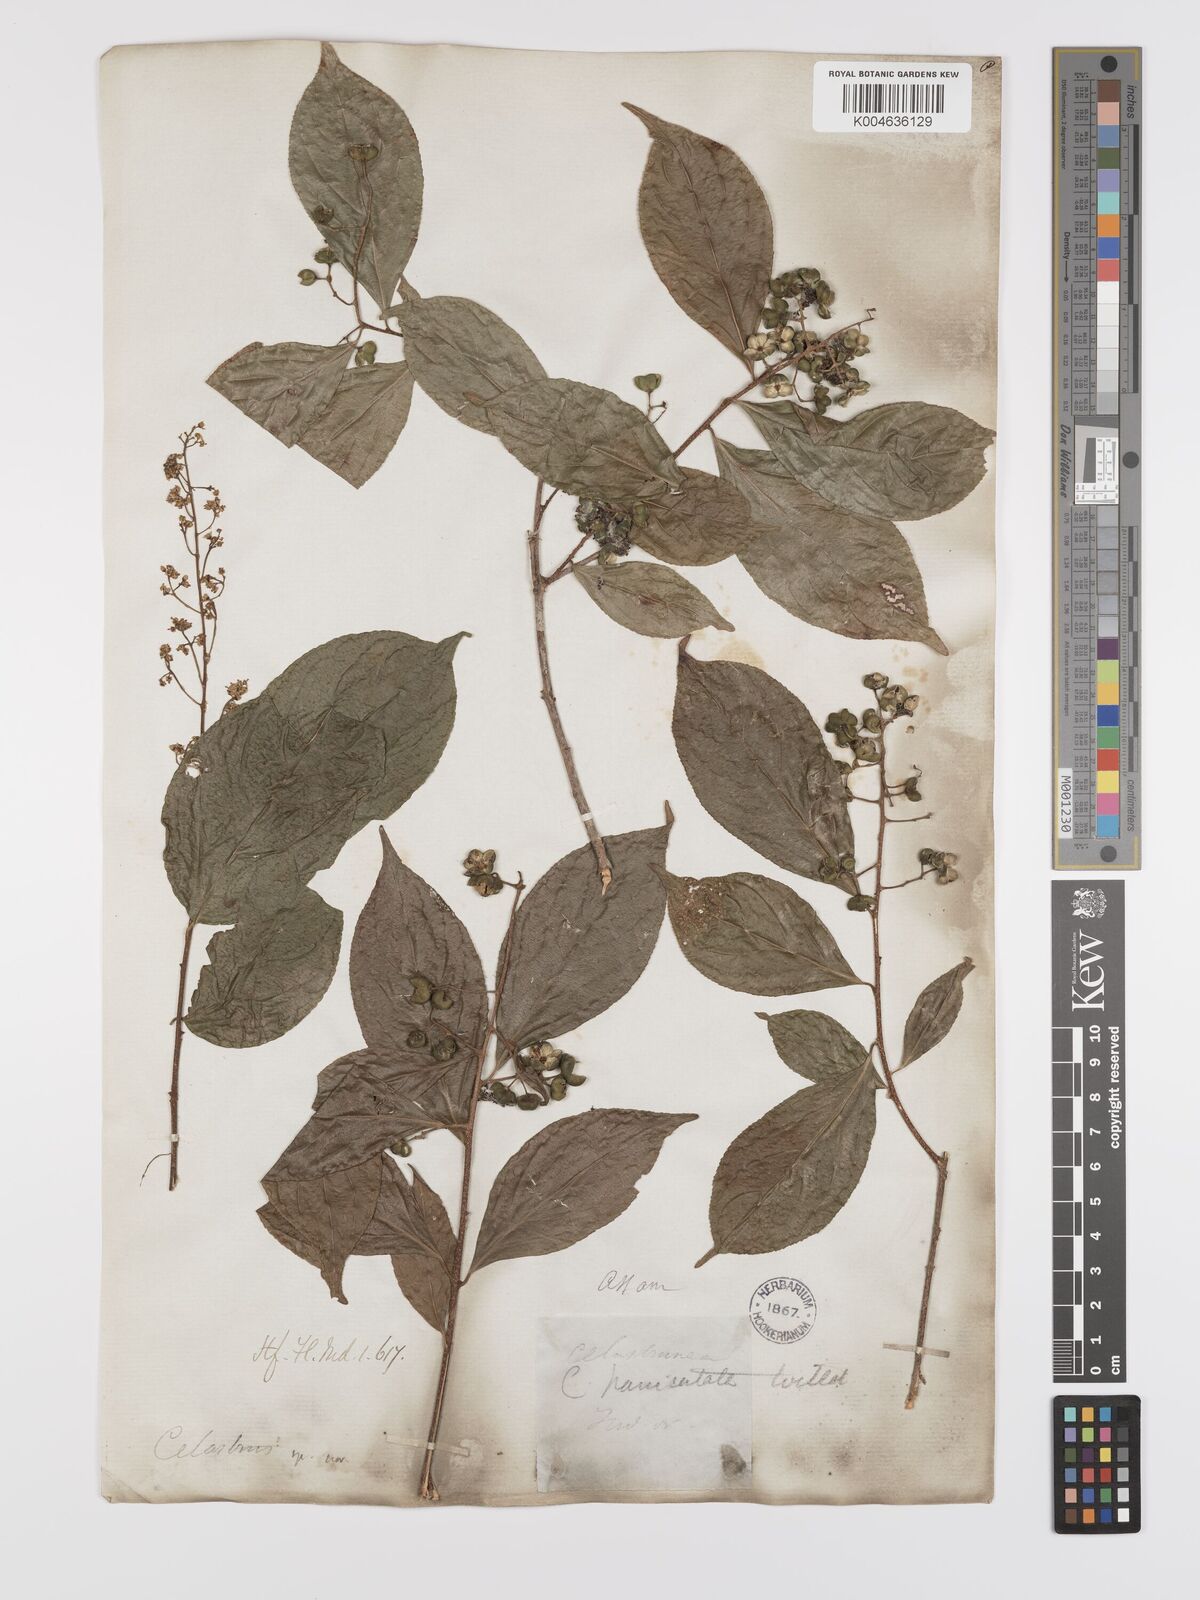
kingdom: Plantae
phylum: Tracheophyta
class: Magnoliopsida
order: Celastrales
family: Celastraceae
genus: Celastrus
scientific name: Celastrus paniculatus
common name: Oriental bittersweet; staff vine
